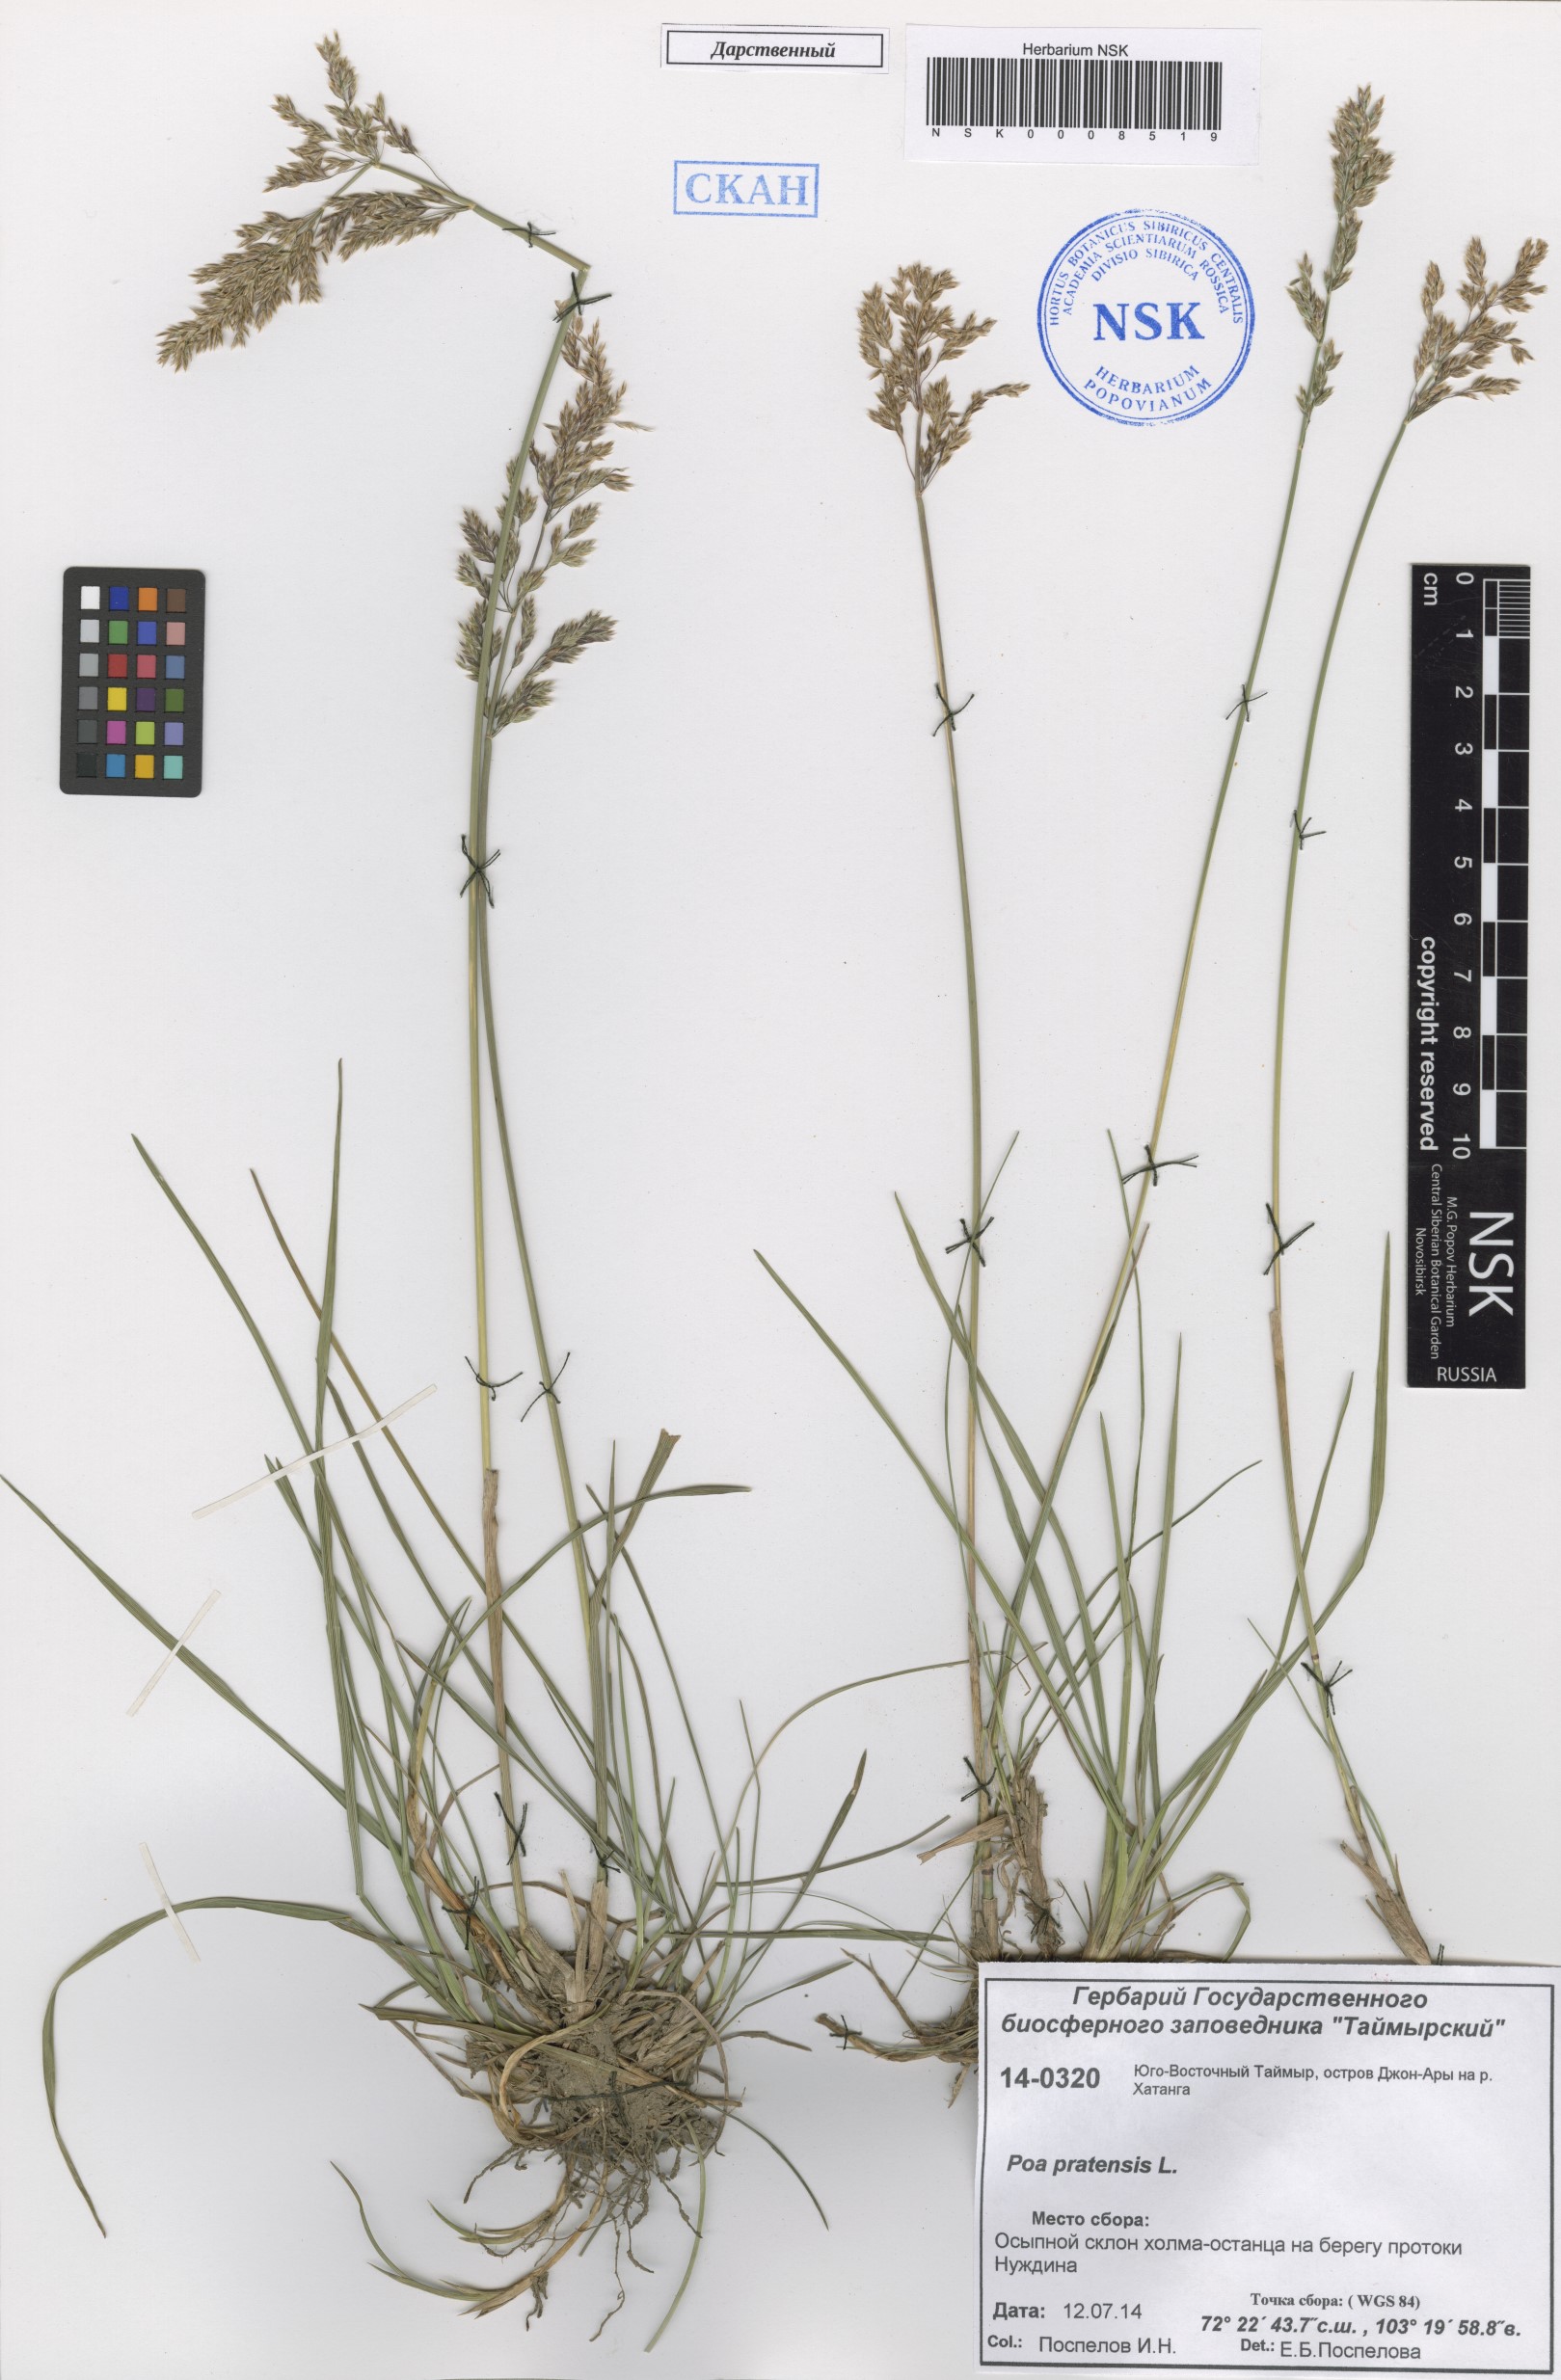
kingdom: Plantae
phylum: Tracheophyta
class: Liliopsida
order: Poales
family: Poaceae
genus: Poa
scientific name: Poa pratensis
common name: Kentucky bluegrass
